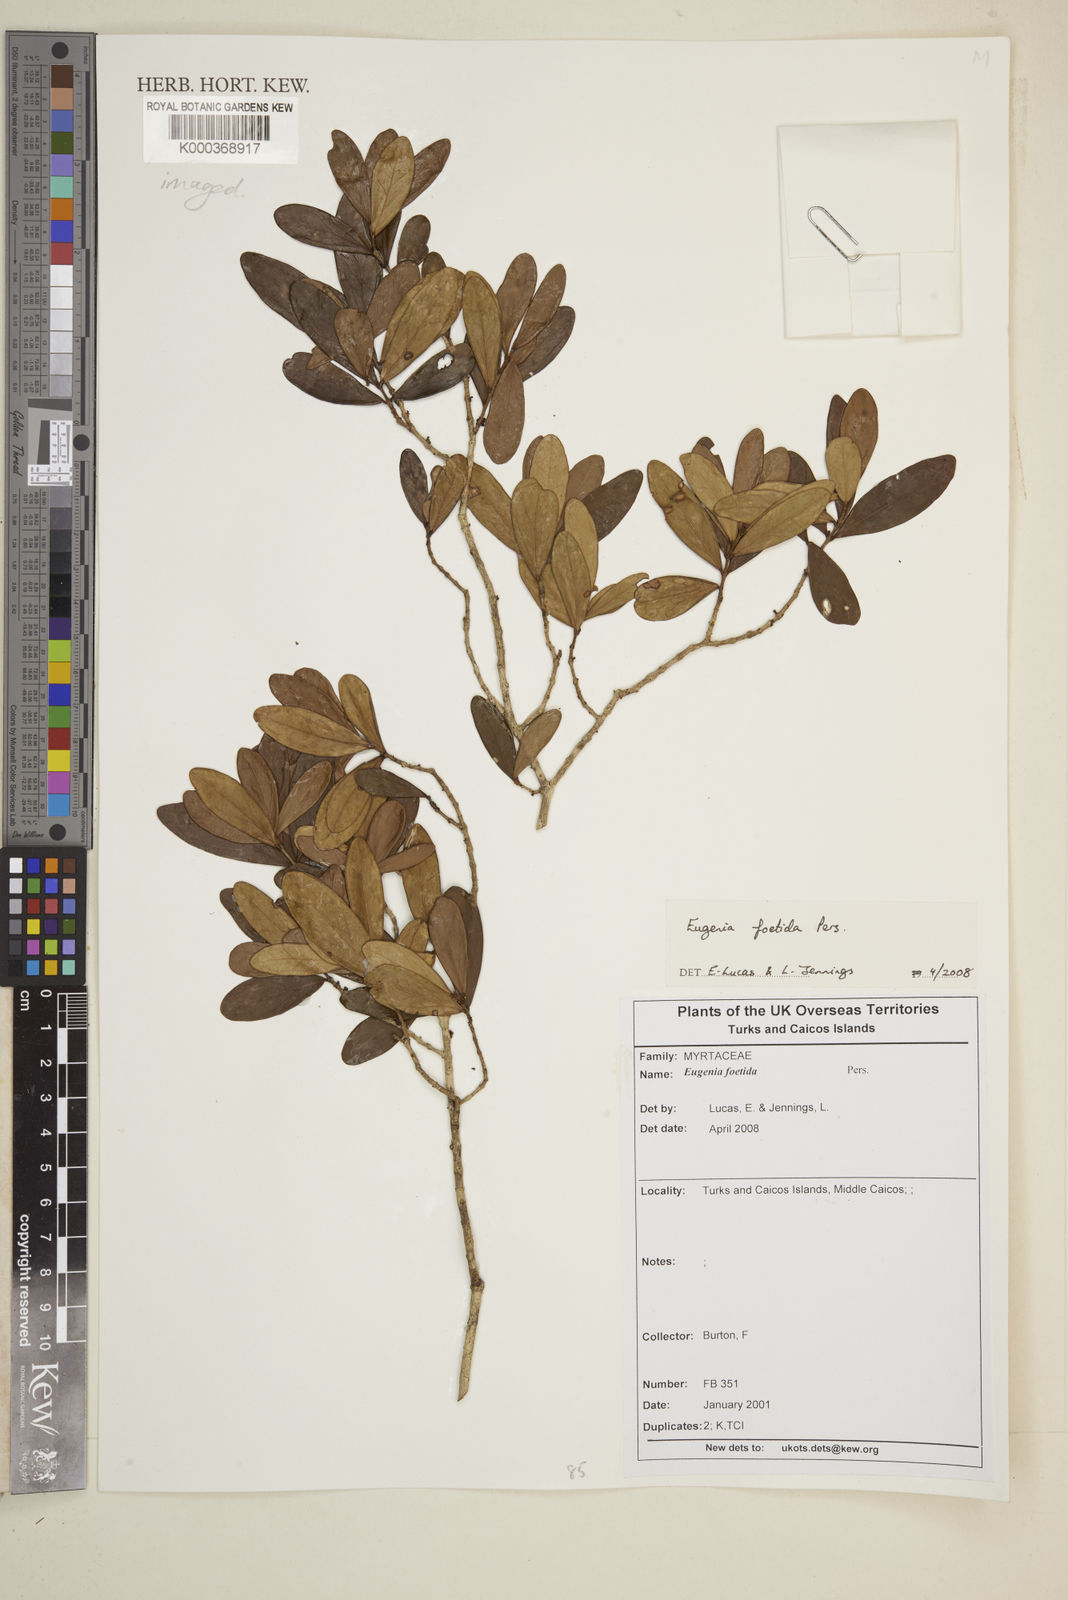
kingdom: Plantae
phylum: Tracheophyta
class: Magnoliopsida
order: Myrtales
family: Myrtaceae
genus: Eugenia
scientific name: Eugenia foetida
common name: White wattling
